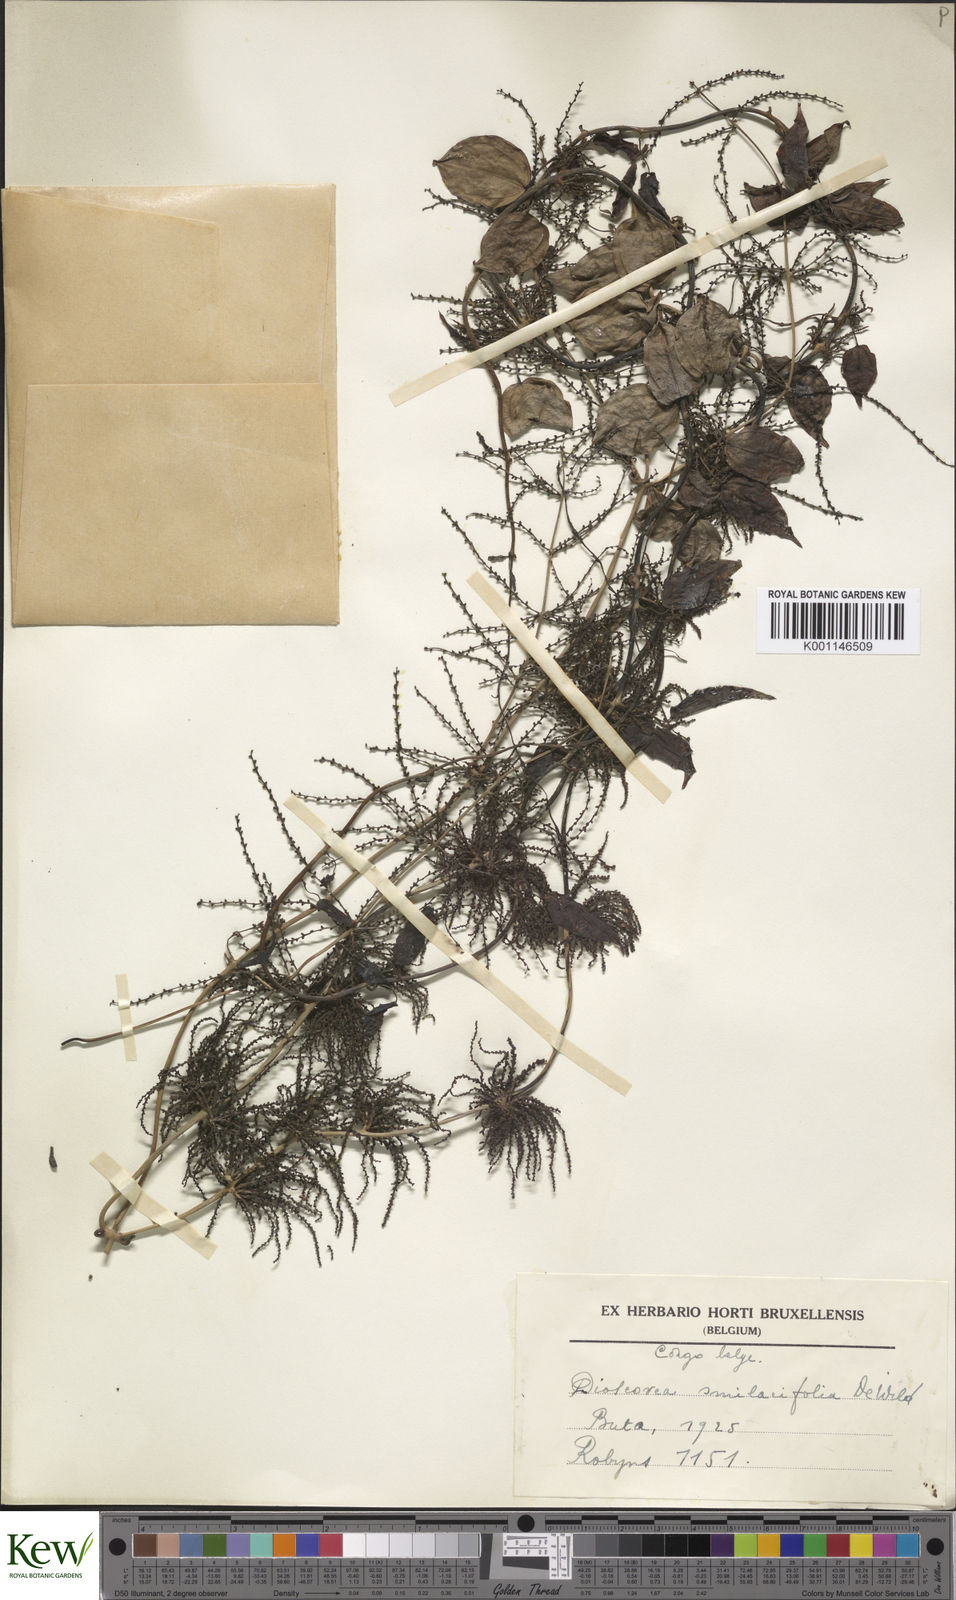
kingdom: Plantae
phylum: Tracheophyta
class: Liliopsida
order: Dioscoreales
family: Dioscoreaceae
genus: Dioscorea
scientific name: Dioscorea smilacifolia
